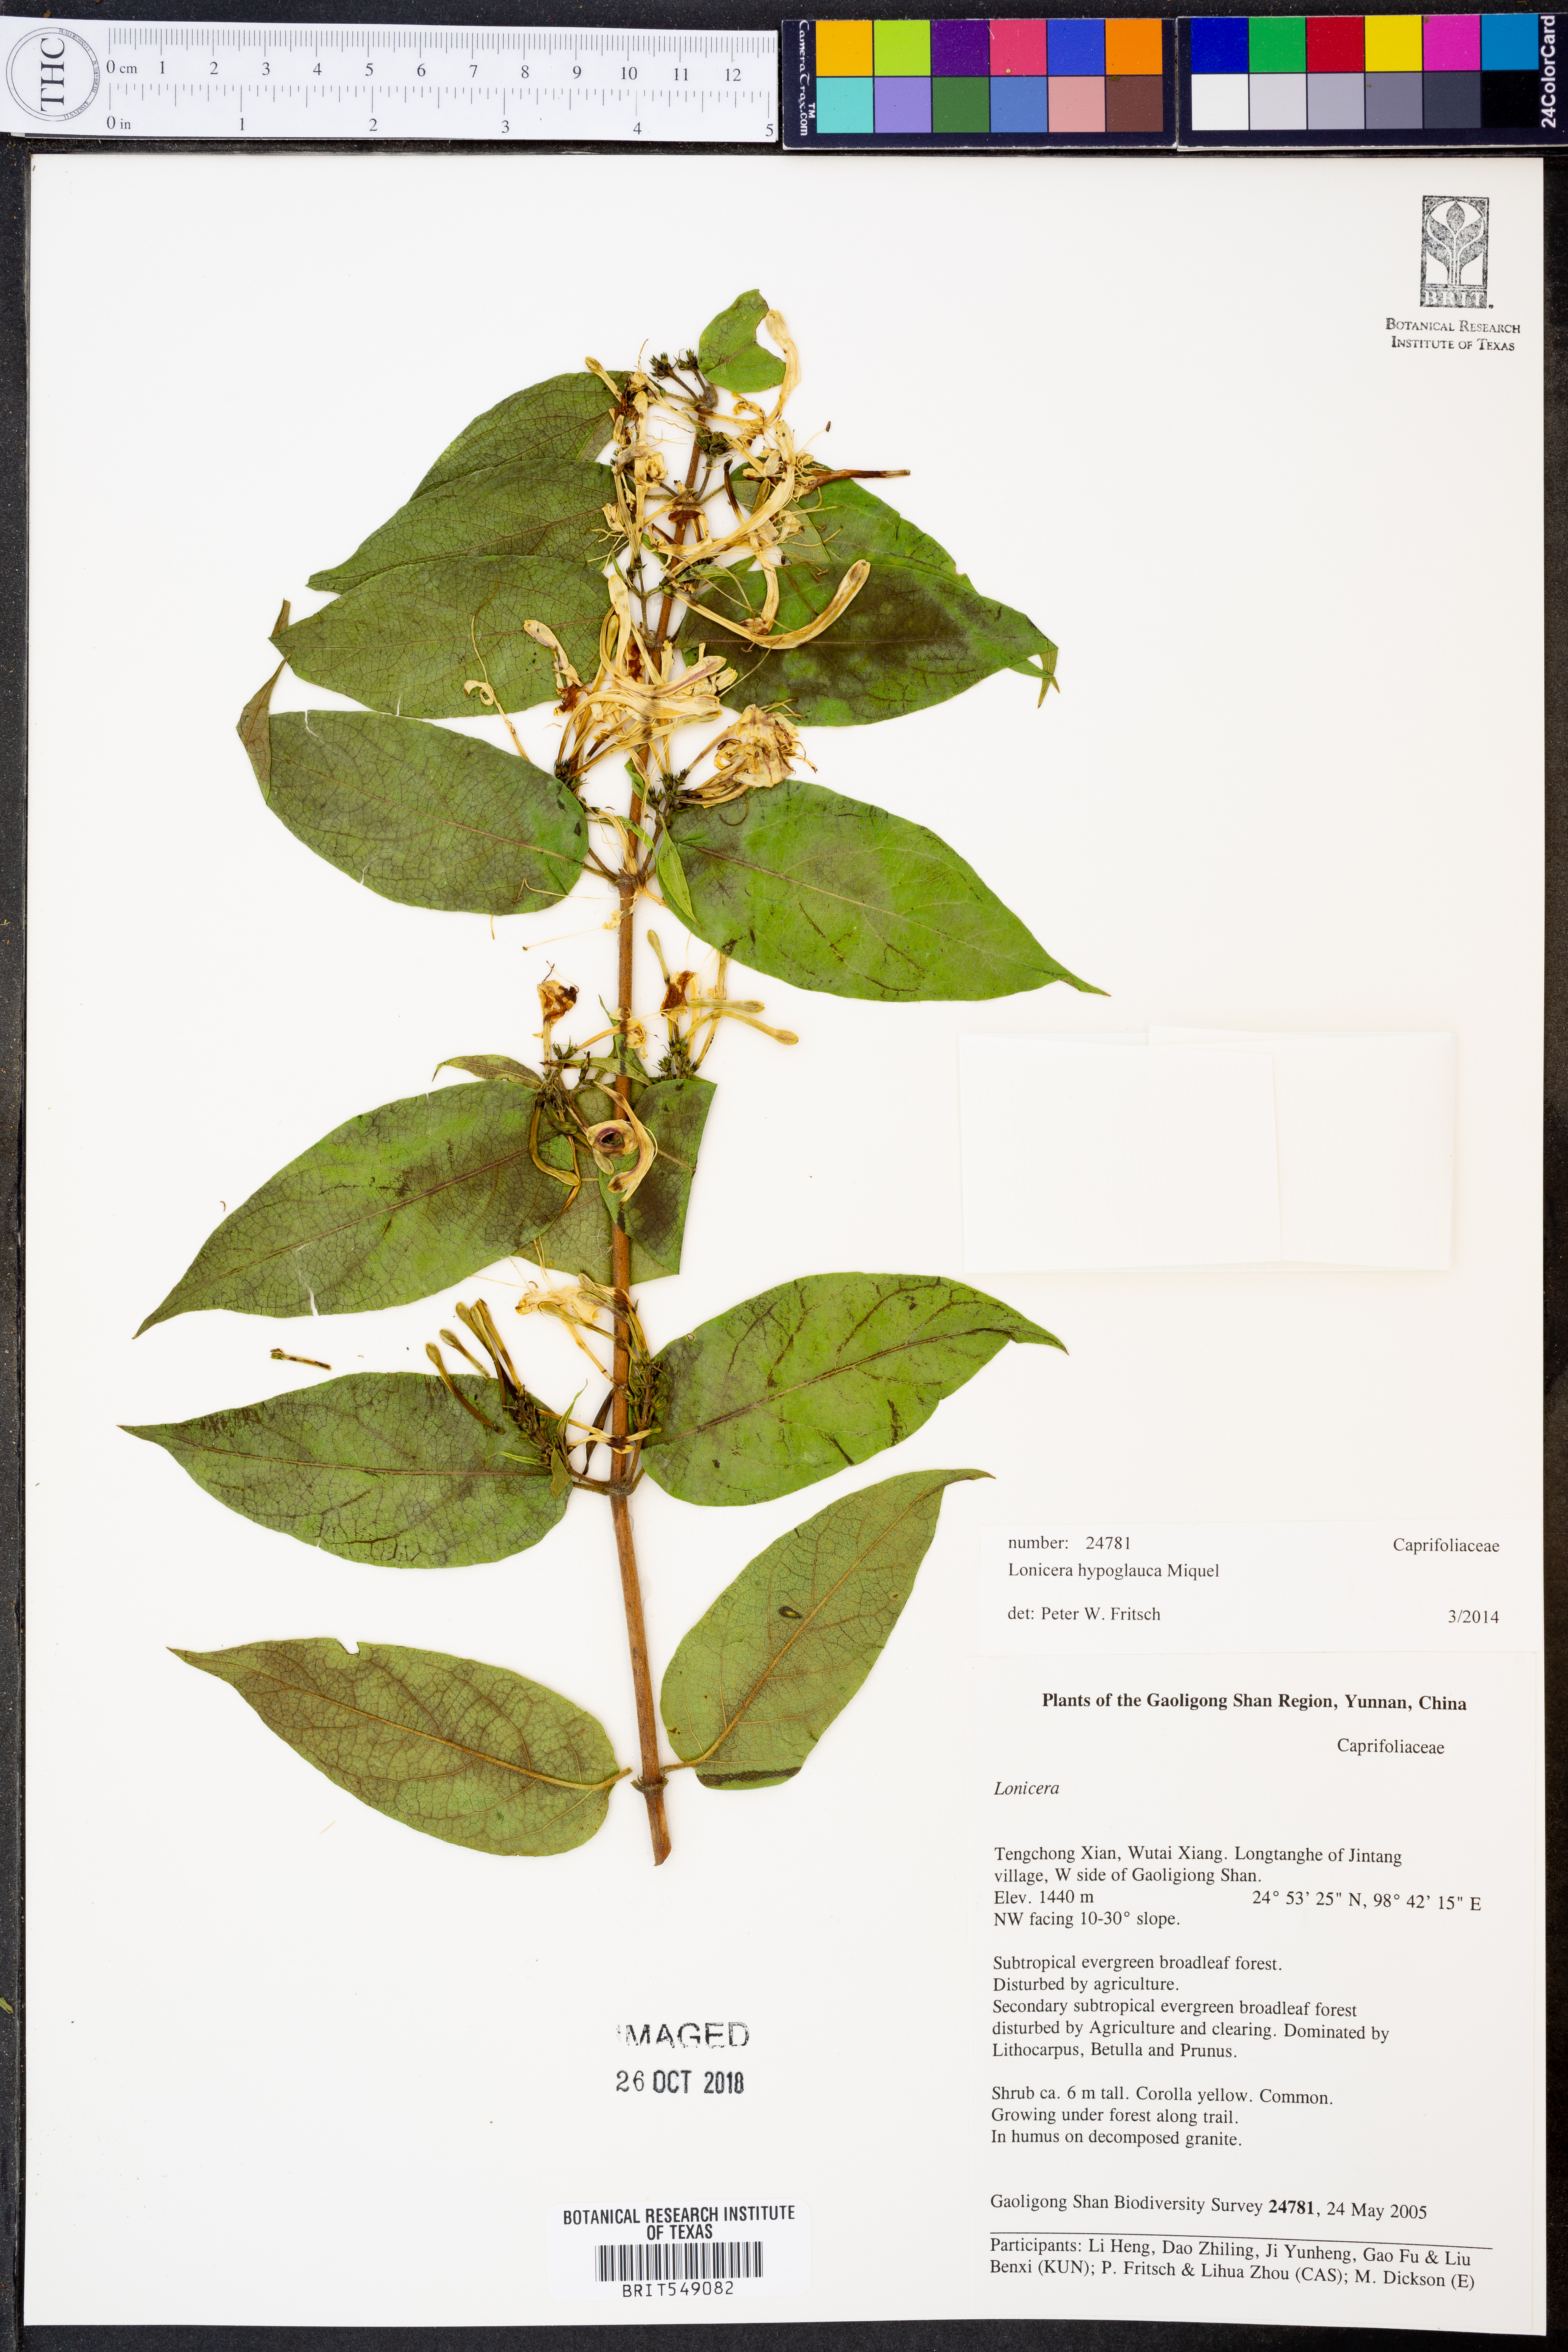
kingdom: Plantae
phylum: Tracheophyta
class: Magnoliopsida
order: Dipsacales
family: Caprifoliaceae
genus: Lonicera
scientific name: Lonicera hypoglauca
